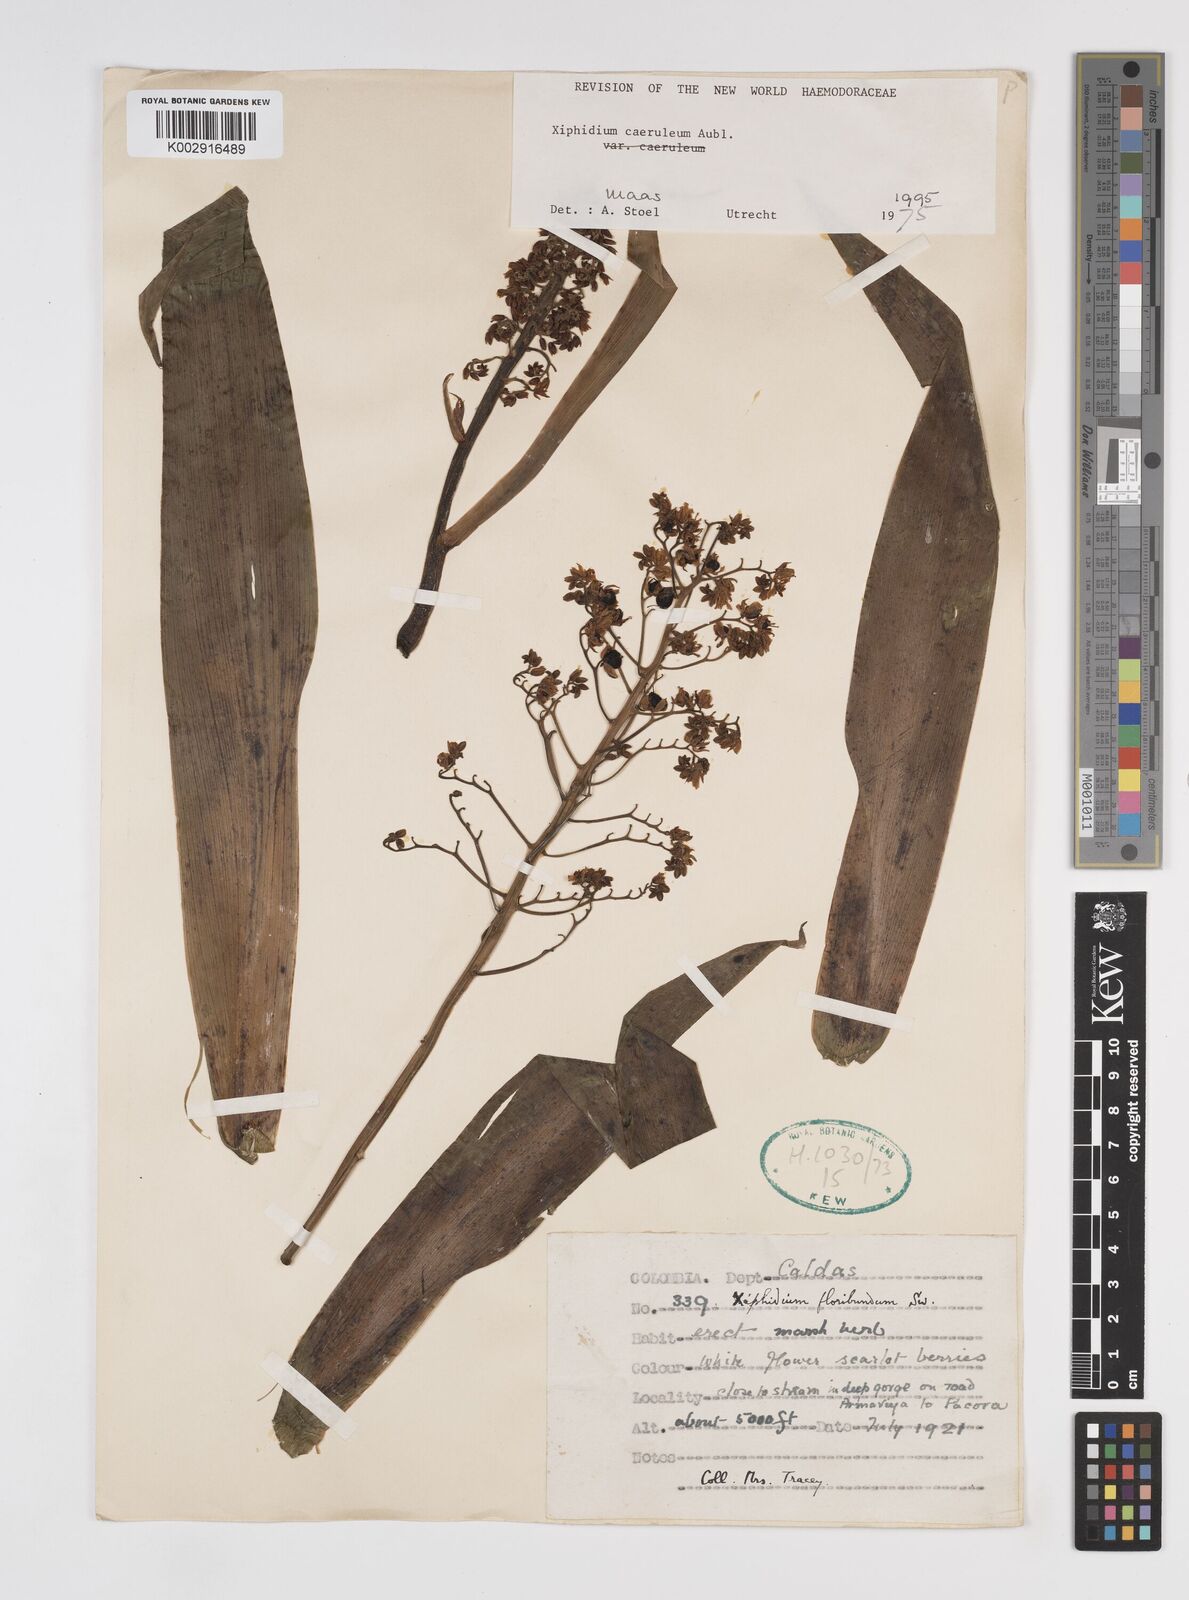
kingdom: Plantae
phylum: Tracheophyta
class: Liliopsida
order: Commelinales
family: Haemodoraceae
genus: Xiphidium
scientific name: Xiphidium caeruleum
